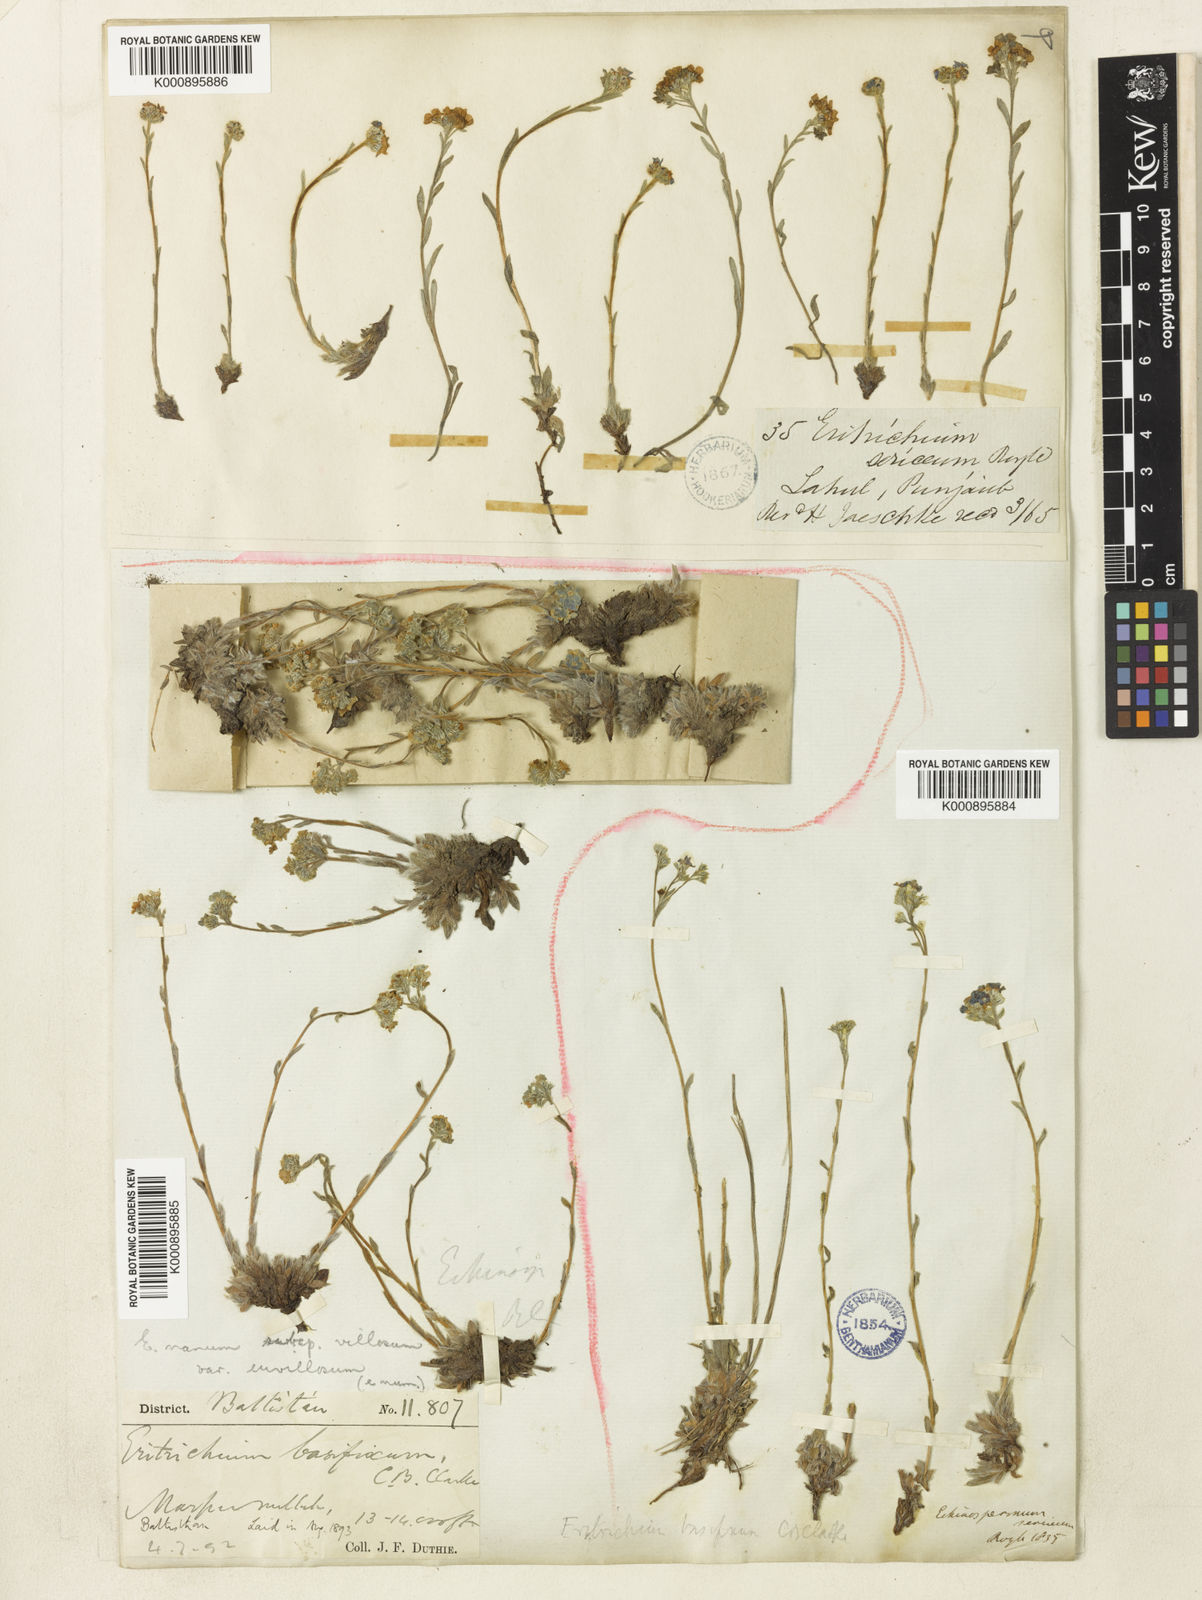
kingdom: Plantae
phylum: Tracheophyta
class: Magnoliopsida
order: Boraginales
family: Boraginaceae
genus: Eritrichium
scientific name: Eritrichium nanum
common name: King-of-the-alps
